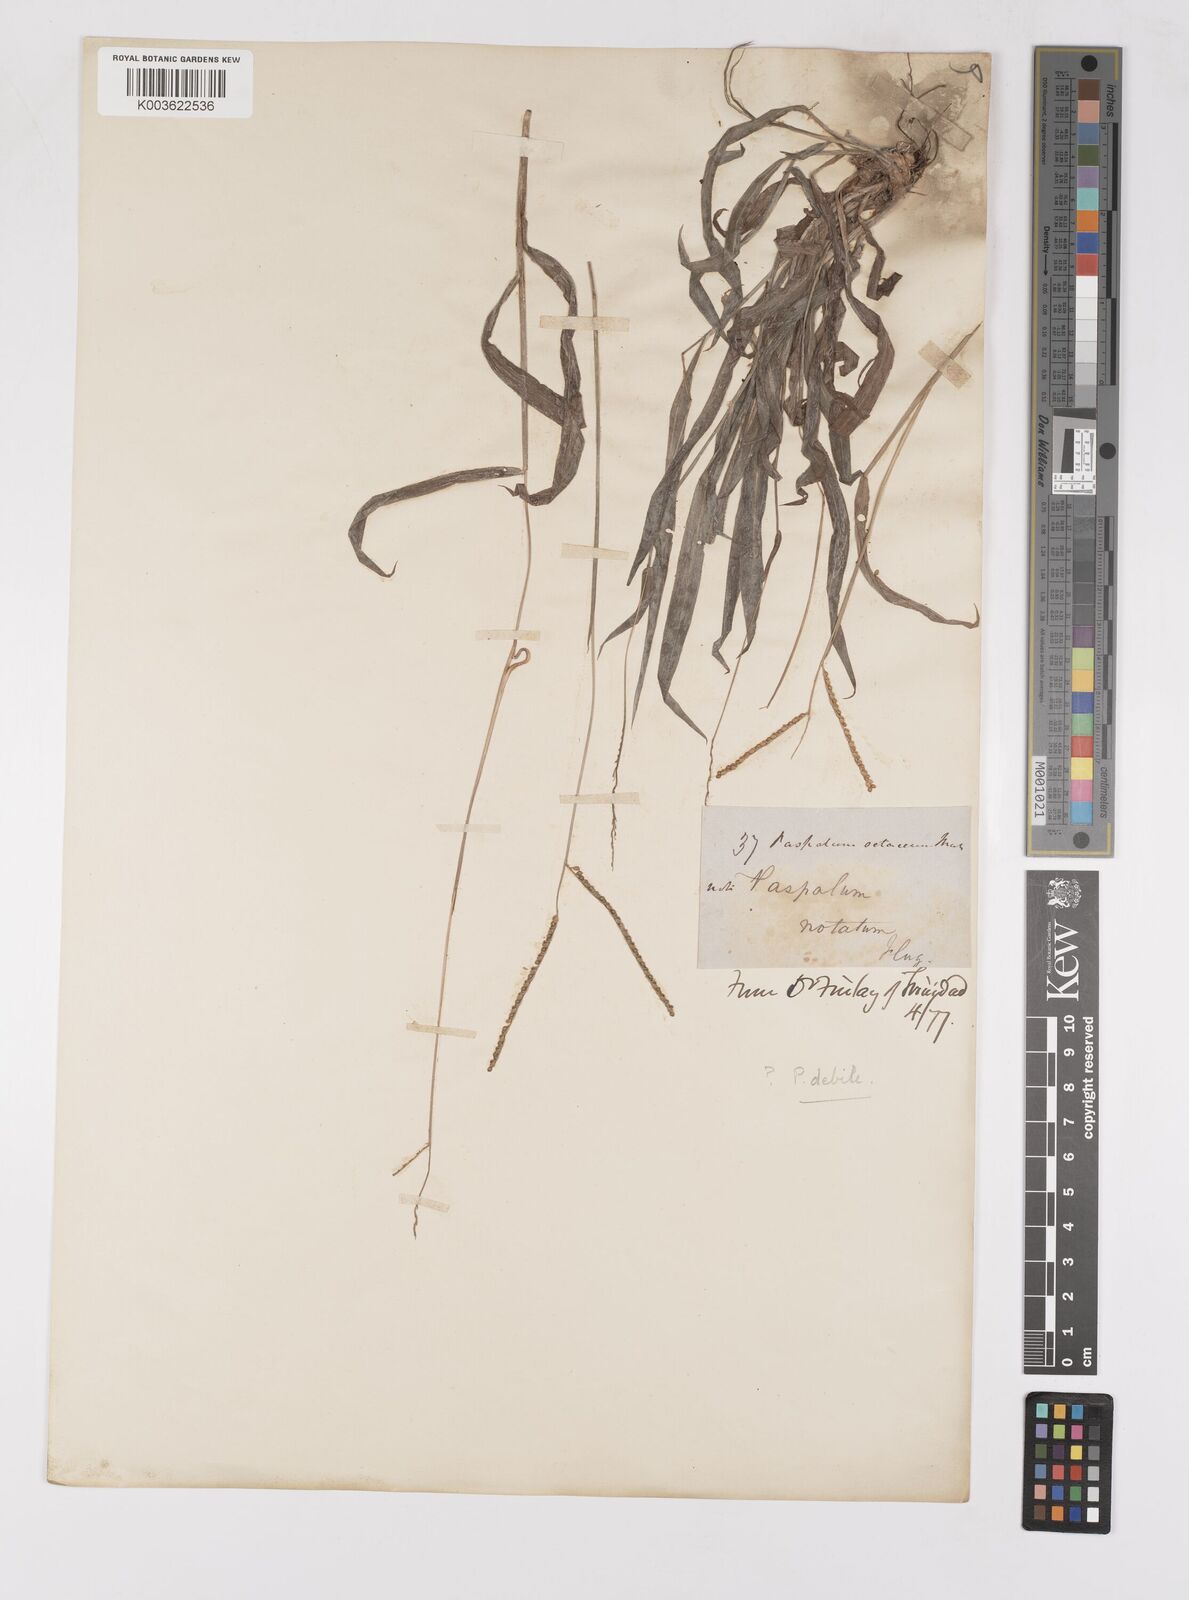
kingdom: Plantae
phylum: Tracheophyta
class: Liliopsida
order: Poales
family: Poaceae
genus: Paspalum
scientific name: Paspalum
